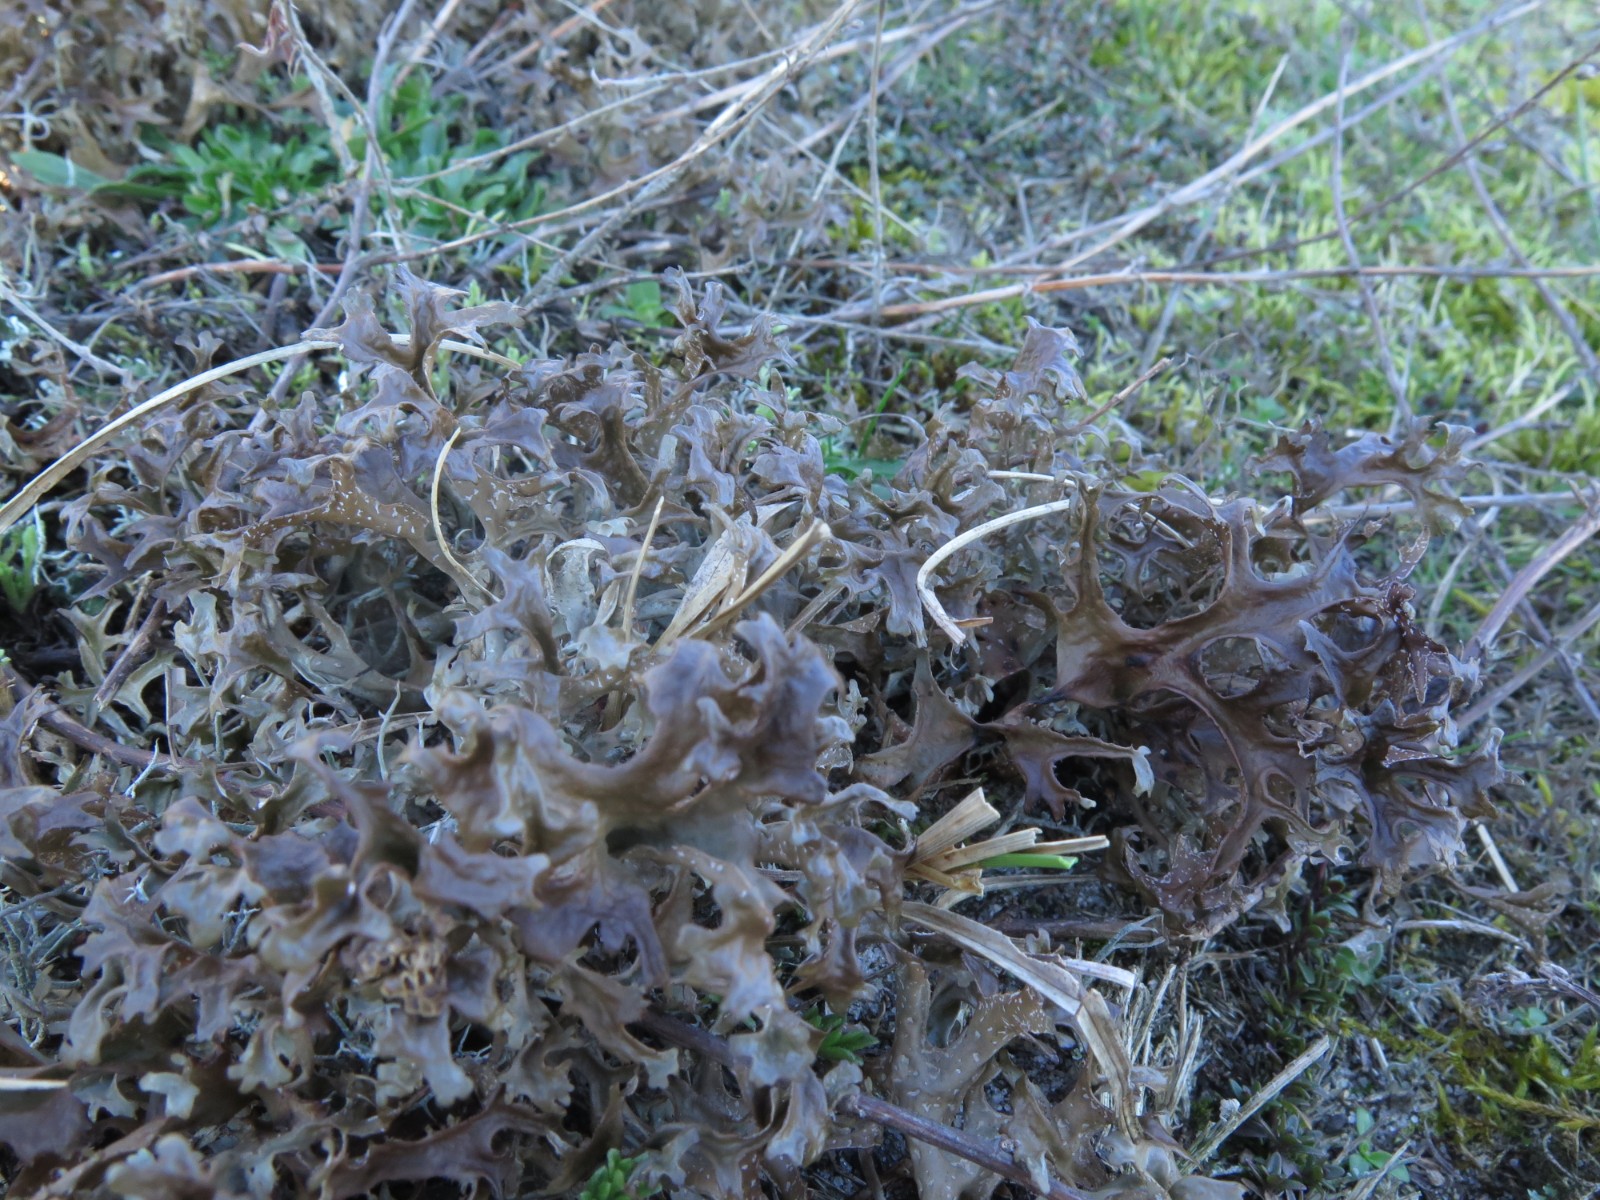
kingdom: Fungi
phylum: Ascomycota
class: Lecanoromycetes
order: Lecanorales
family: Parmeliaceae
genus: Cetraria
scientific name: Cetraria islandica
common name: islandsk kruslav
